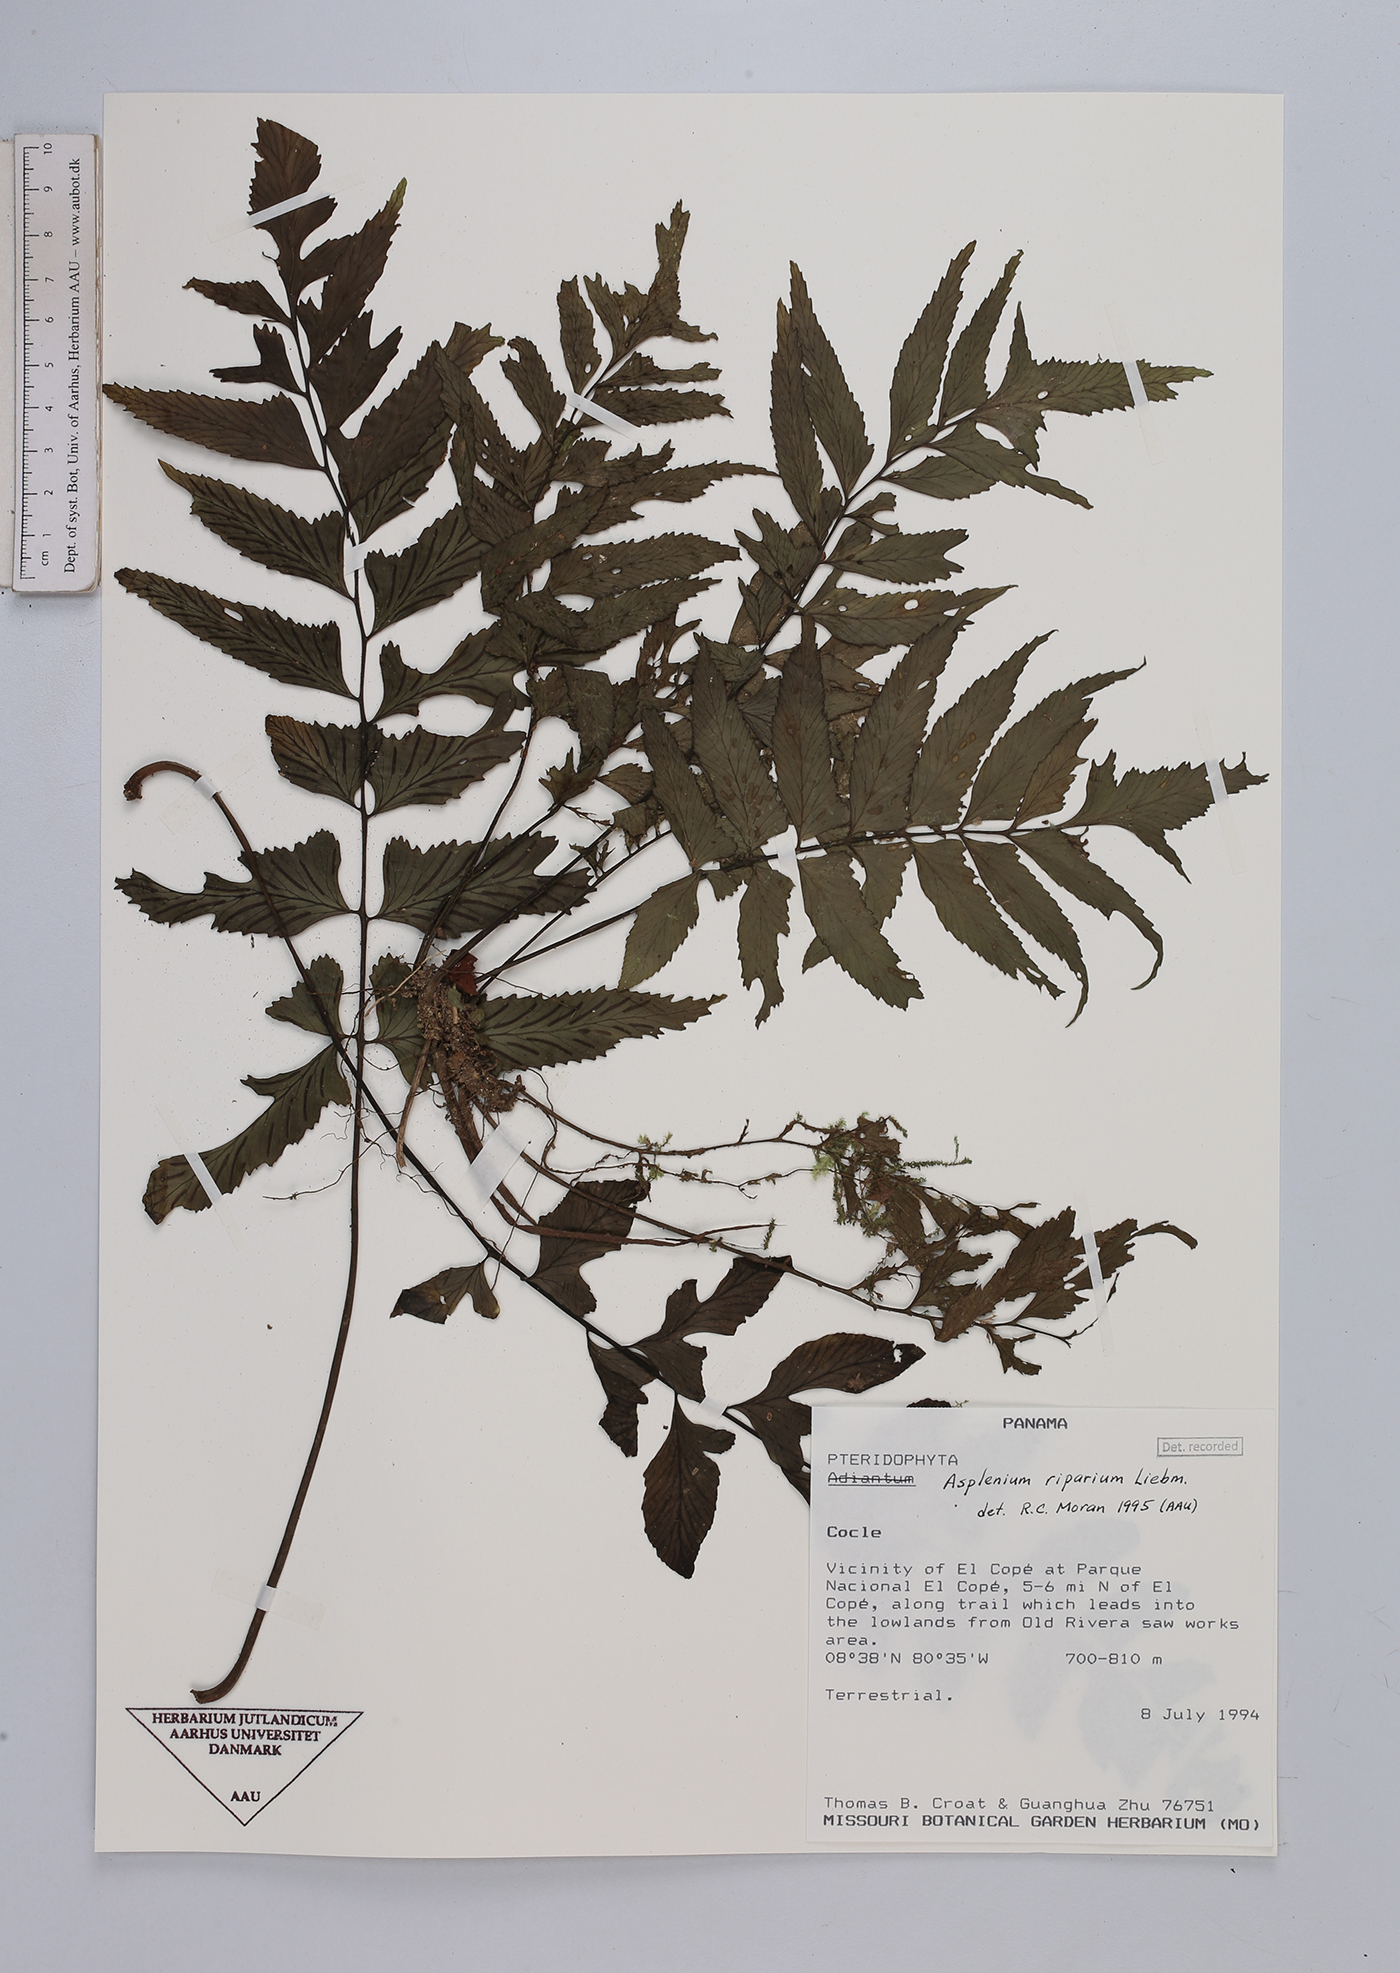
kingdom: Plantae
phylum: Tracheophyta
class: Polypodiopsida
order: Polypodiales
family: Aspleniaceae
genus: Hymenasplenium
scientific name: Hymenasplenium riparium
